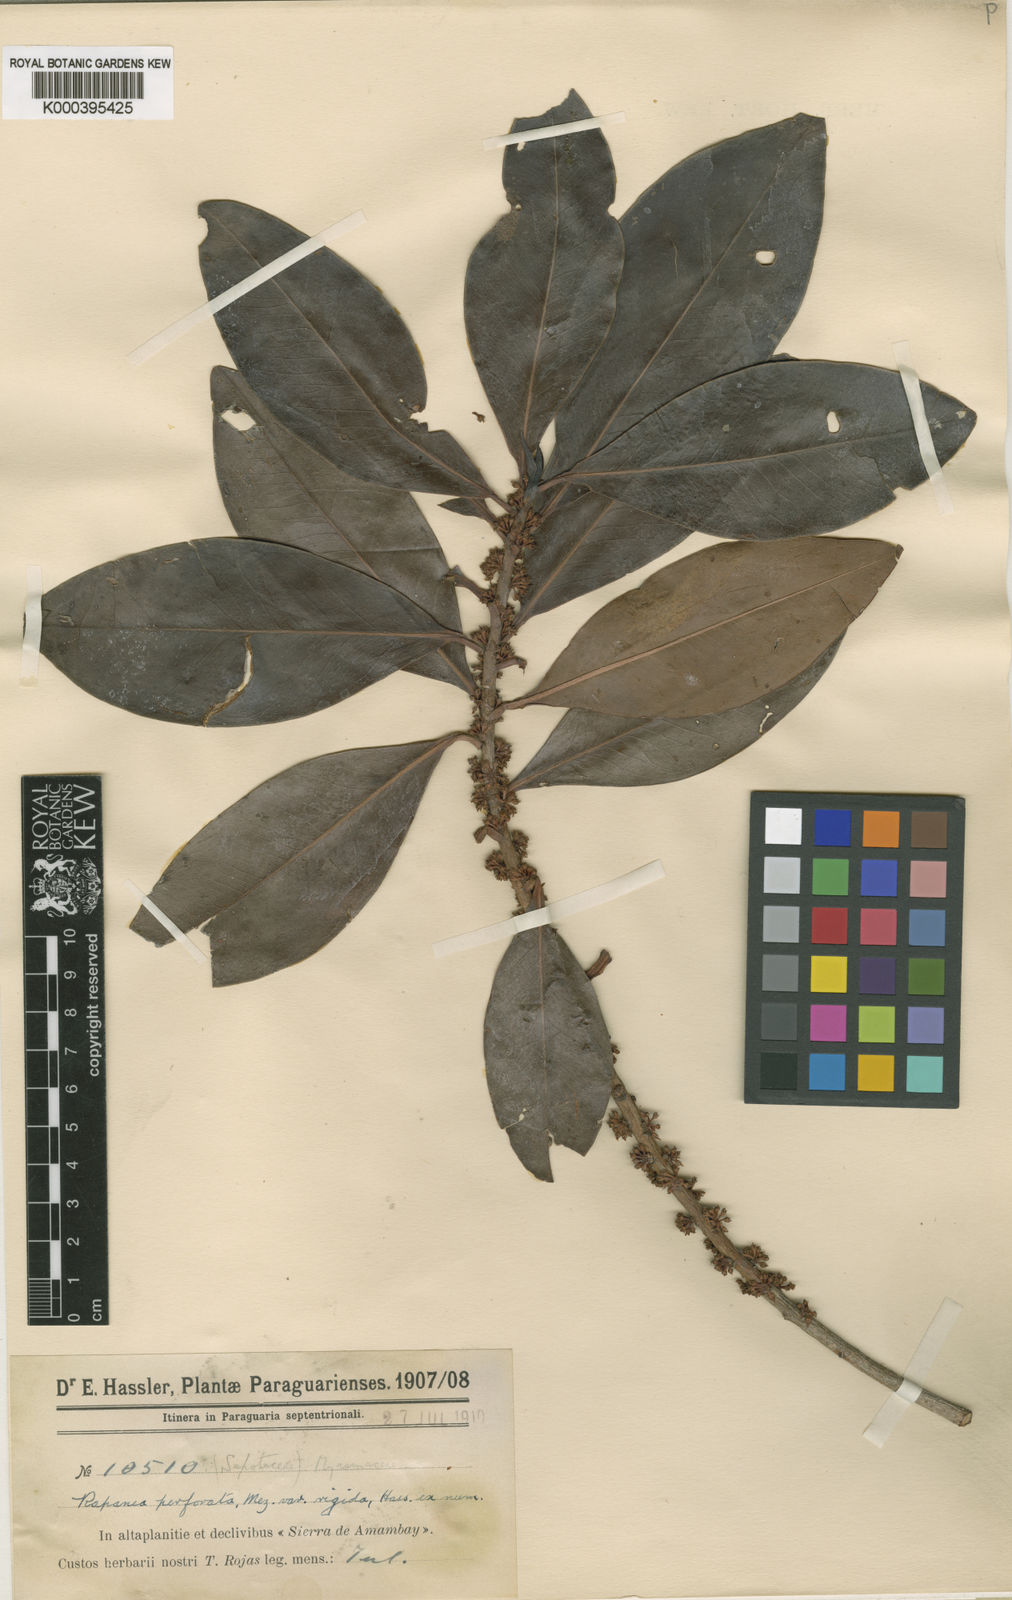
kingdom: Plantae
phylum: Tracheophyta
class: Magnoliopsida
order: Ericales
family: Primulaceae
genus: Myrsine
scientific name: Myrsine matensis
